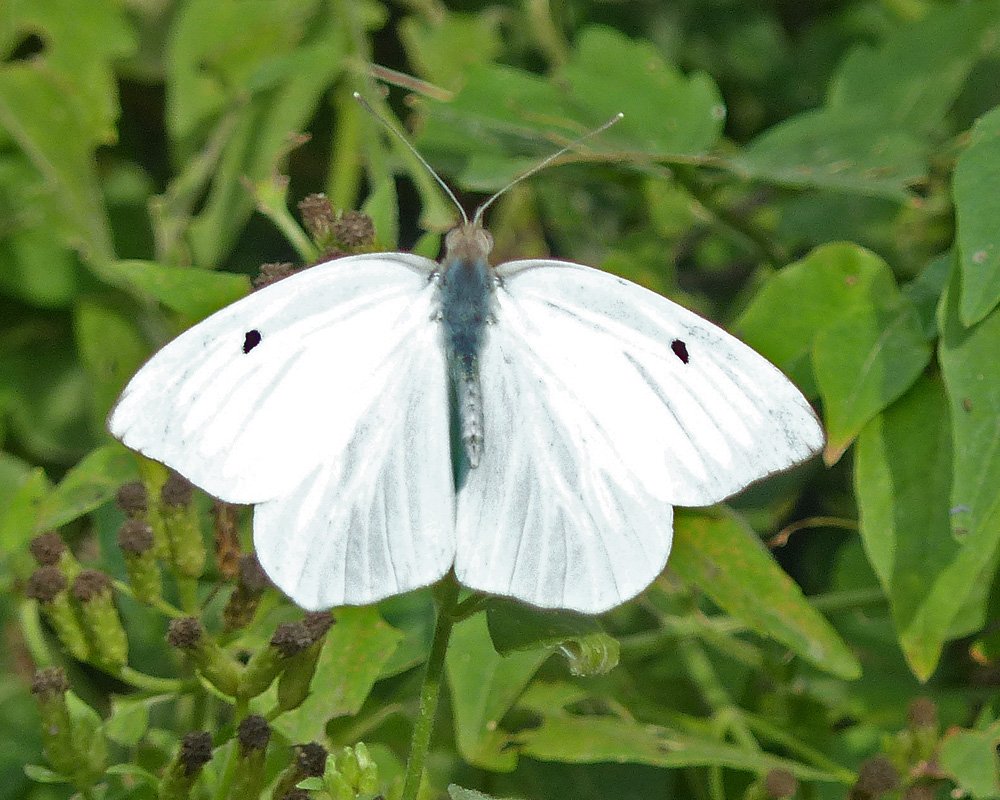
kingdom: Animalia
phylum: Arthropoda
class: Insecta
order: Lepidoptera
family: Pieridae
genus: Ganyra
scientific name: Ganyra josephina
